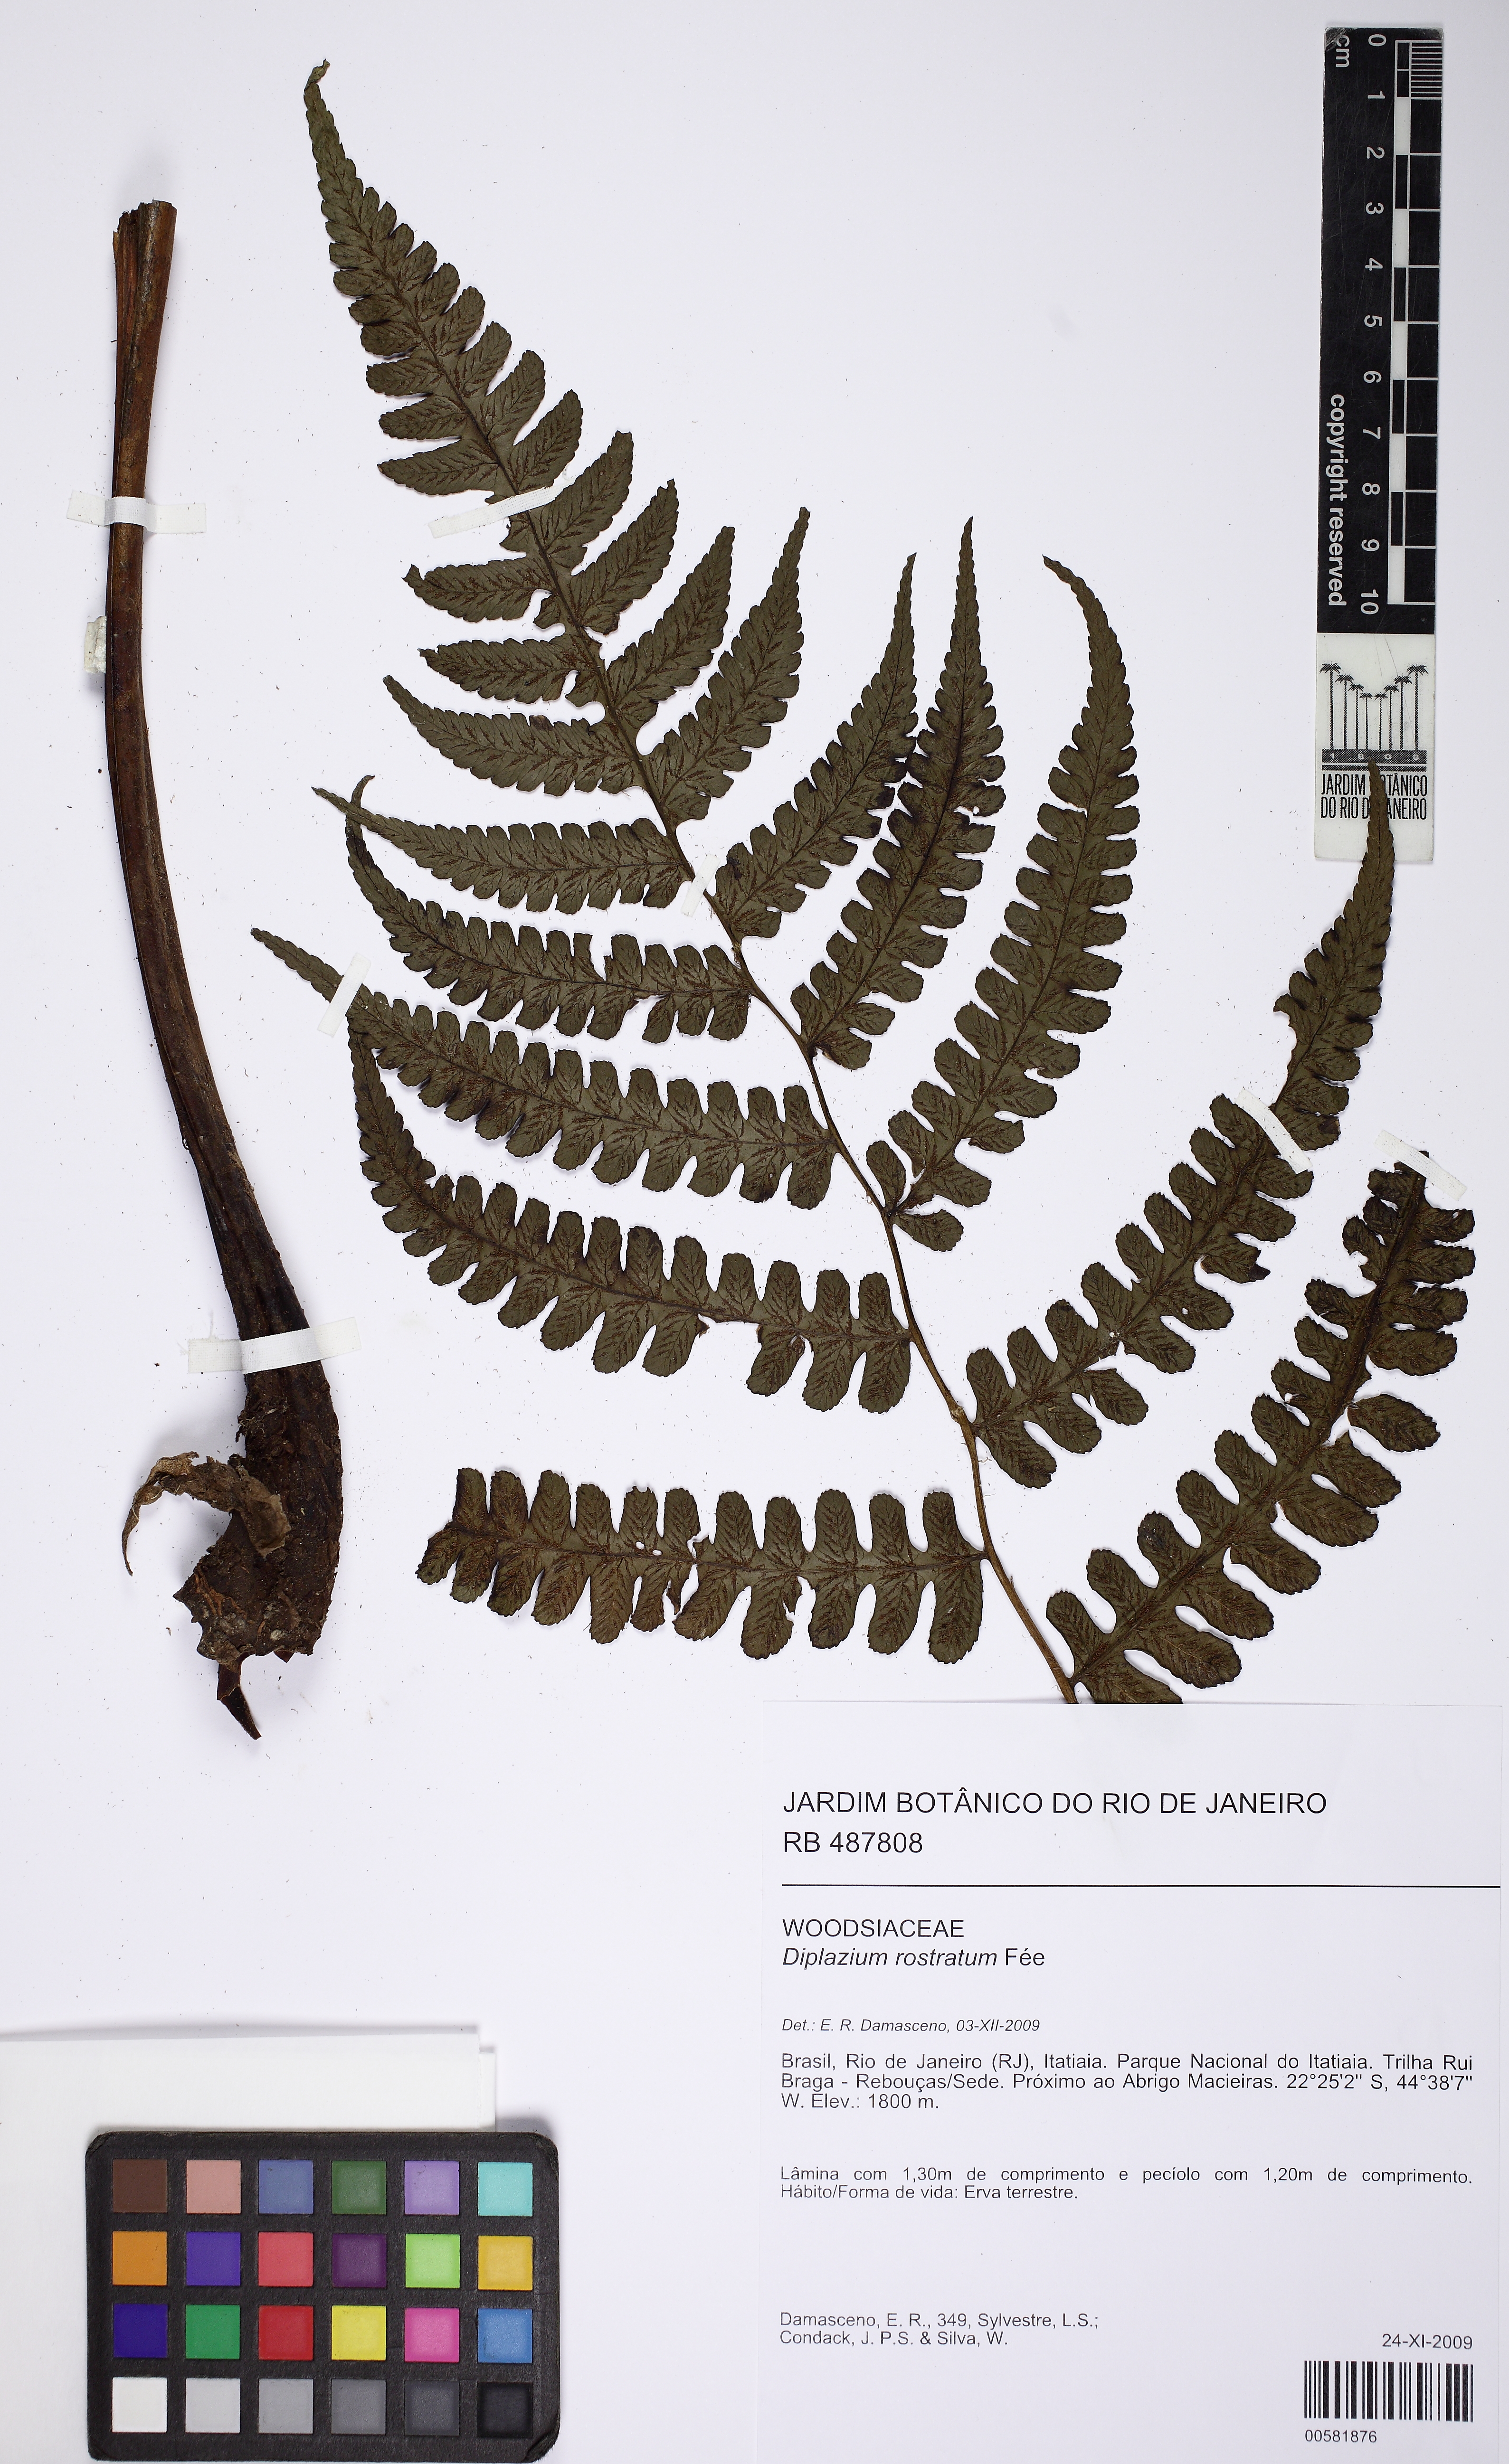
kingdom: Plantae
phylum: Tracheophyta
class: Polypodiopsida
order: Polypodiales
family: Athyriaceae
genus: Diplazium
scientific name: Diplazium rostratum
